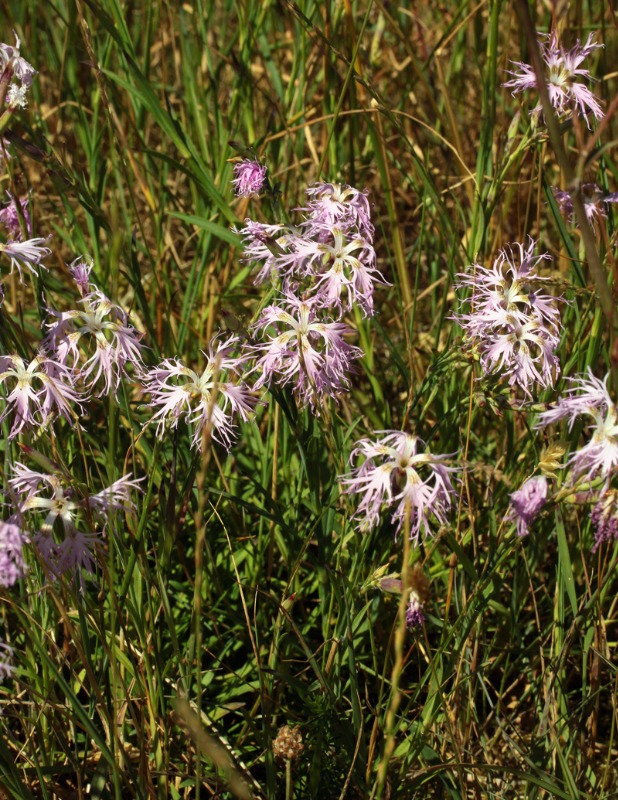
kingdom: Plantae
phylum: Tracheophyta
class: Magnoliopsida
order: Caryophyllales
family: Caryophyllaceae
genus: Dianthus
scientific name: Dianthus superbus
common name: Strand-nellike
